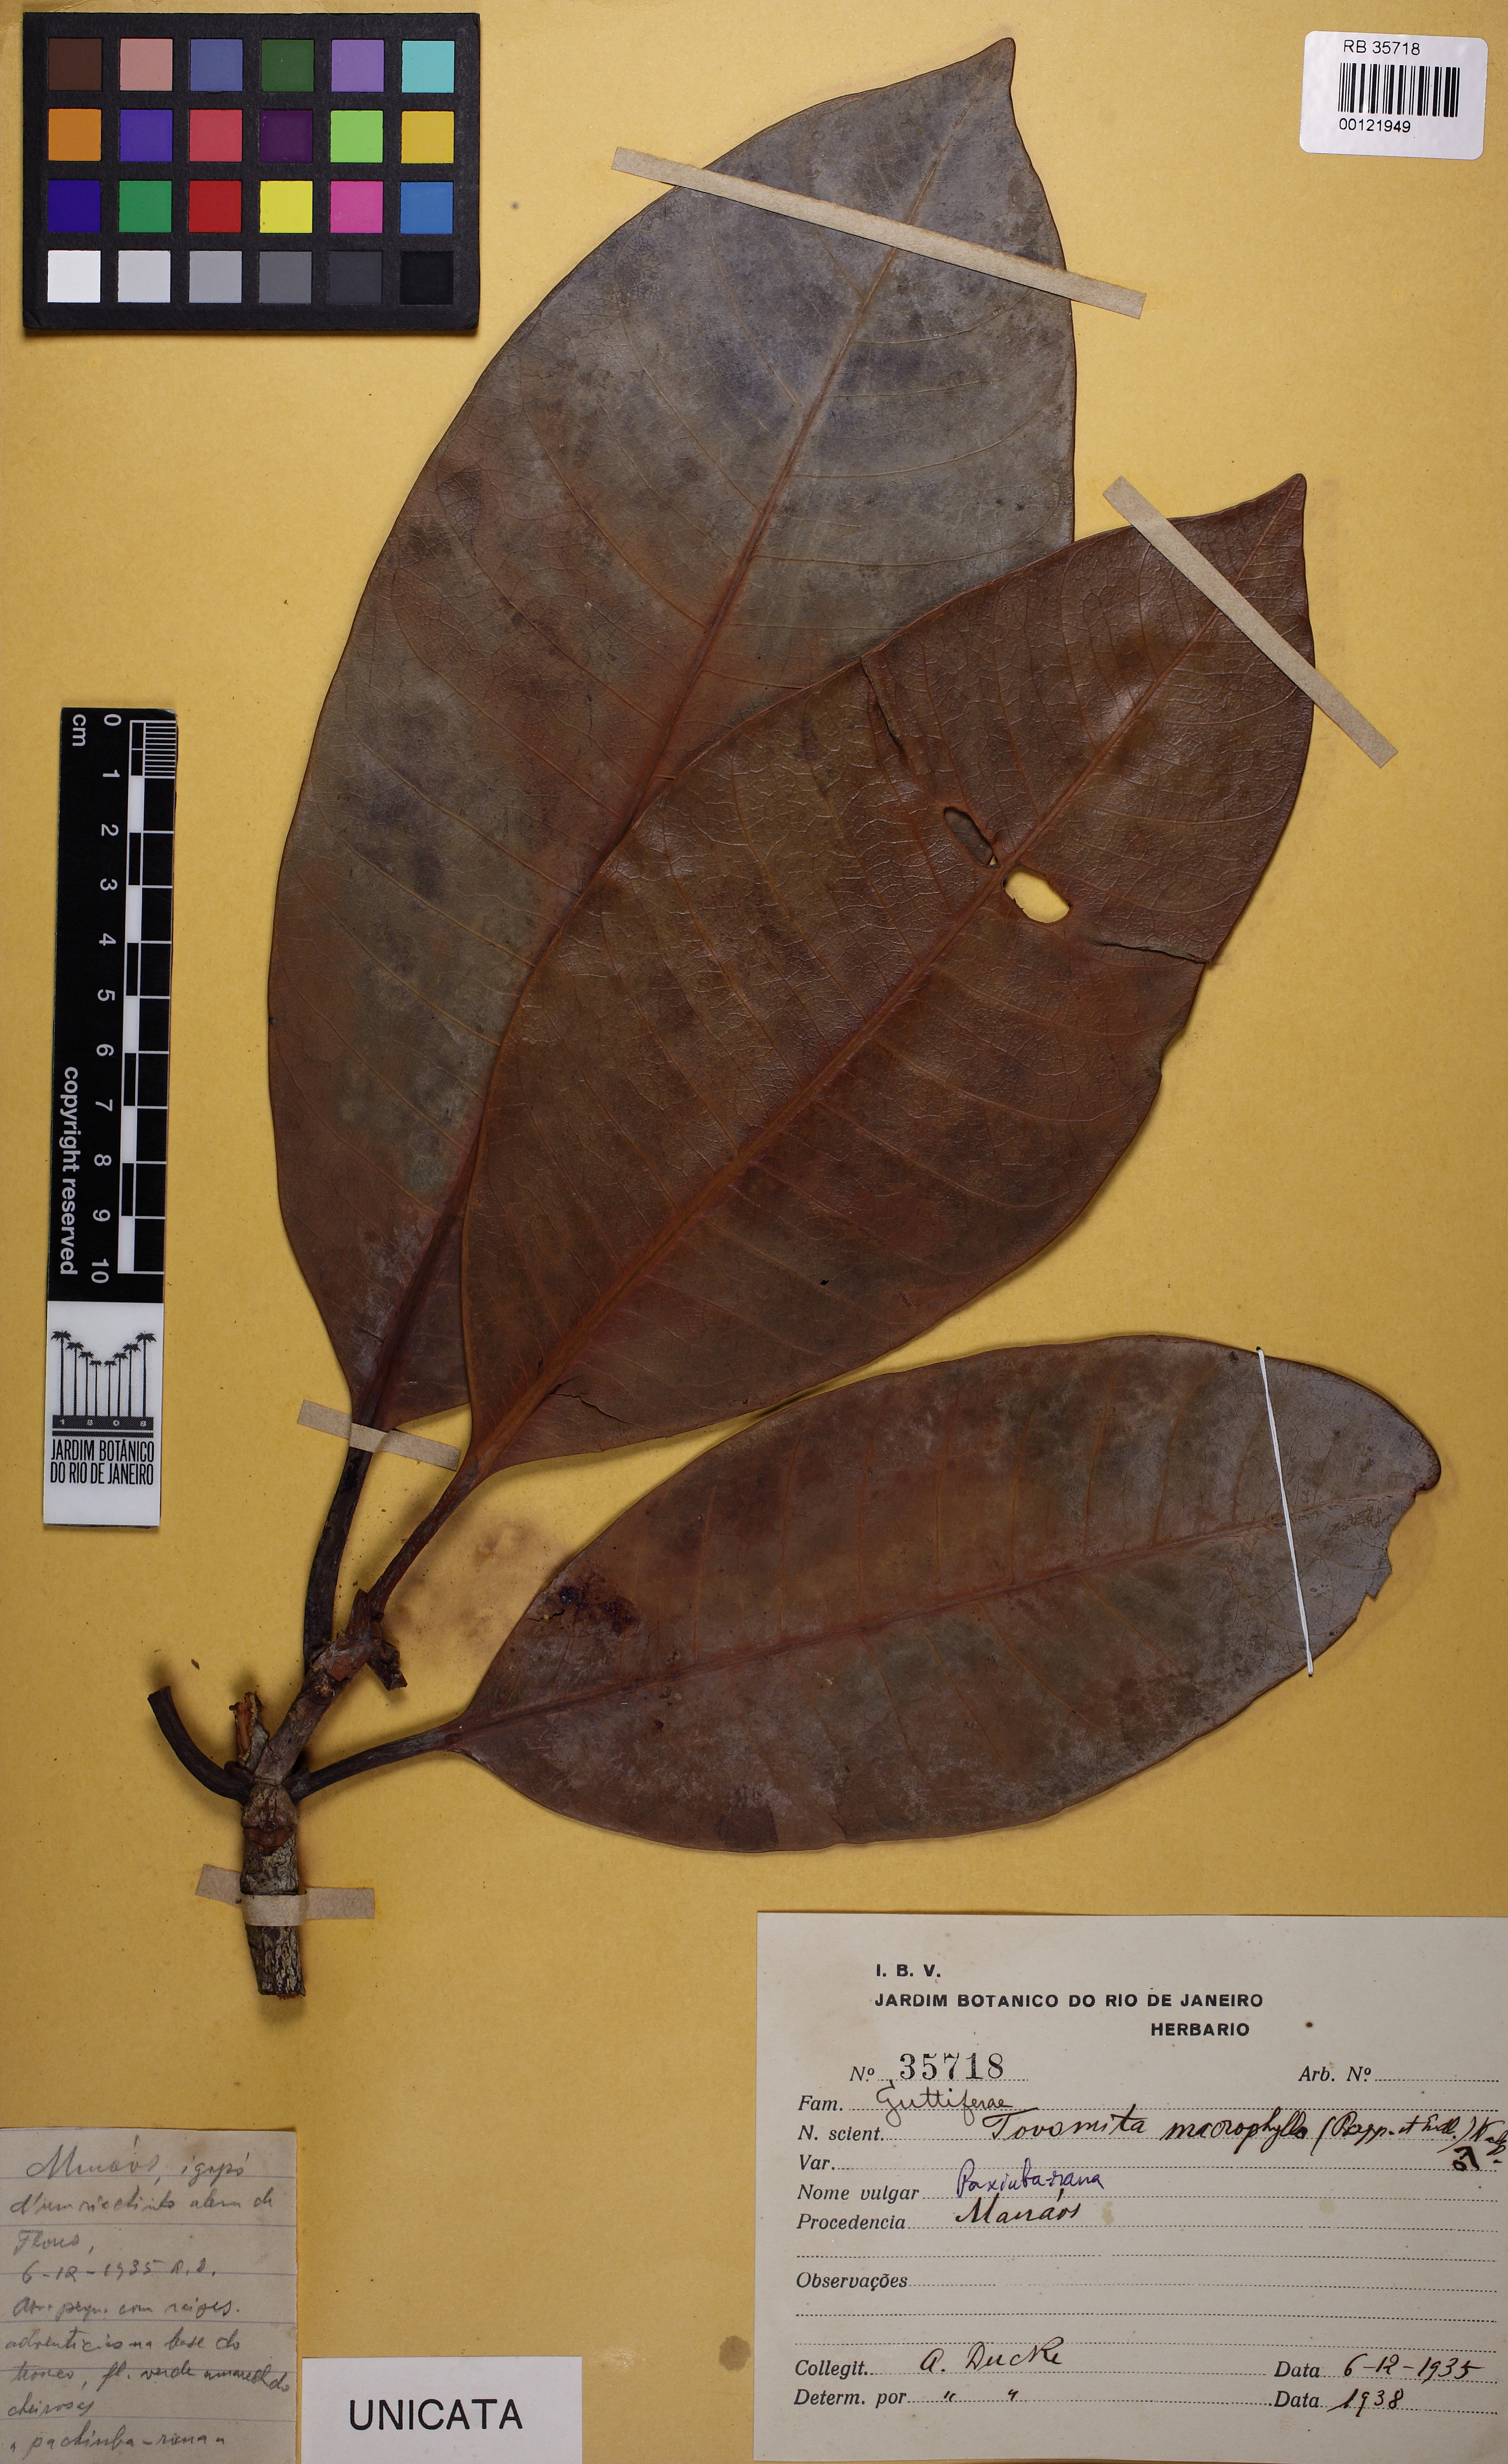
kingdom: Plantae
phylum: Tracheophyta
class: Magnoliopsida
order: Malpighiales
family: Clusiaceae
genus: Tovomita
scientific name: Tovomita macrophylla
